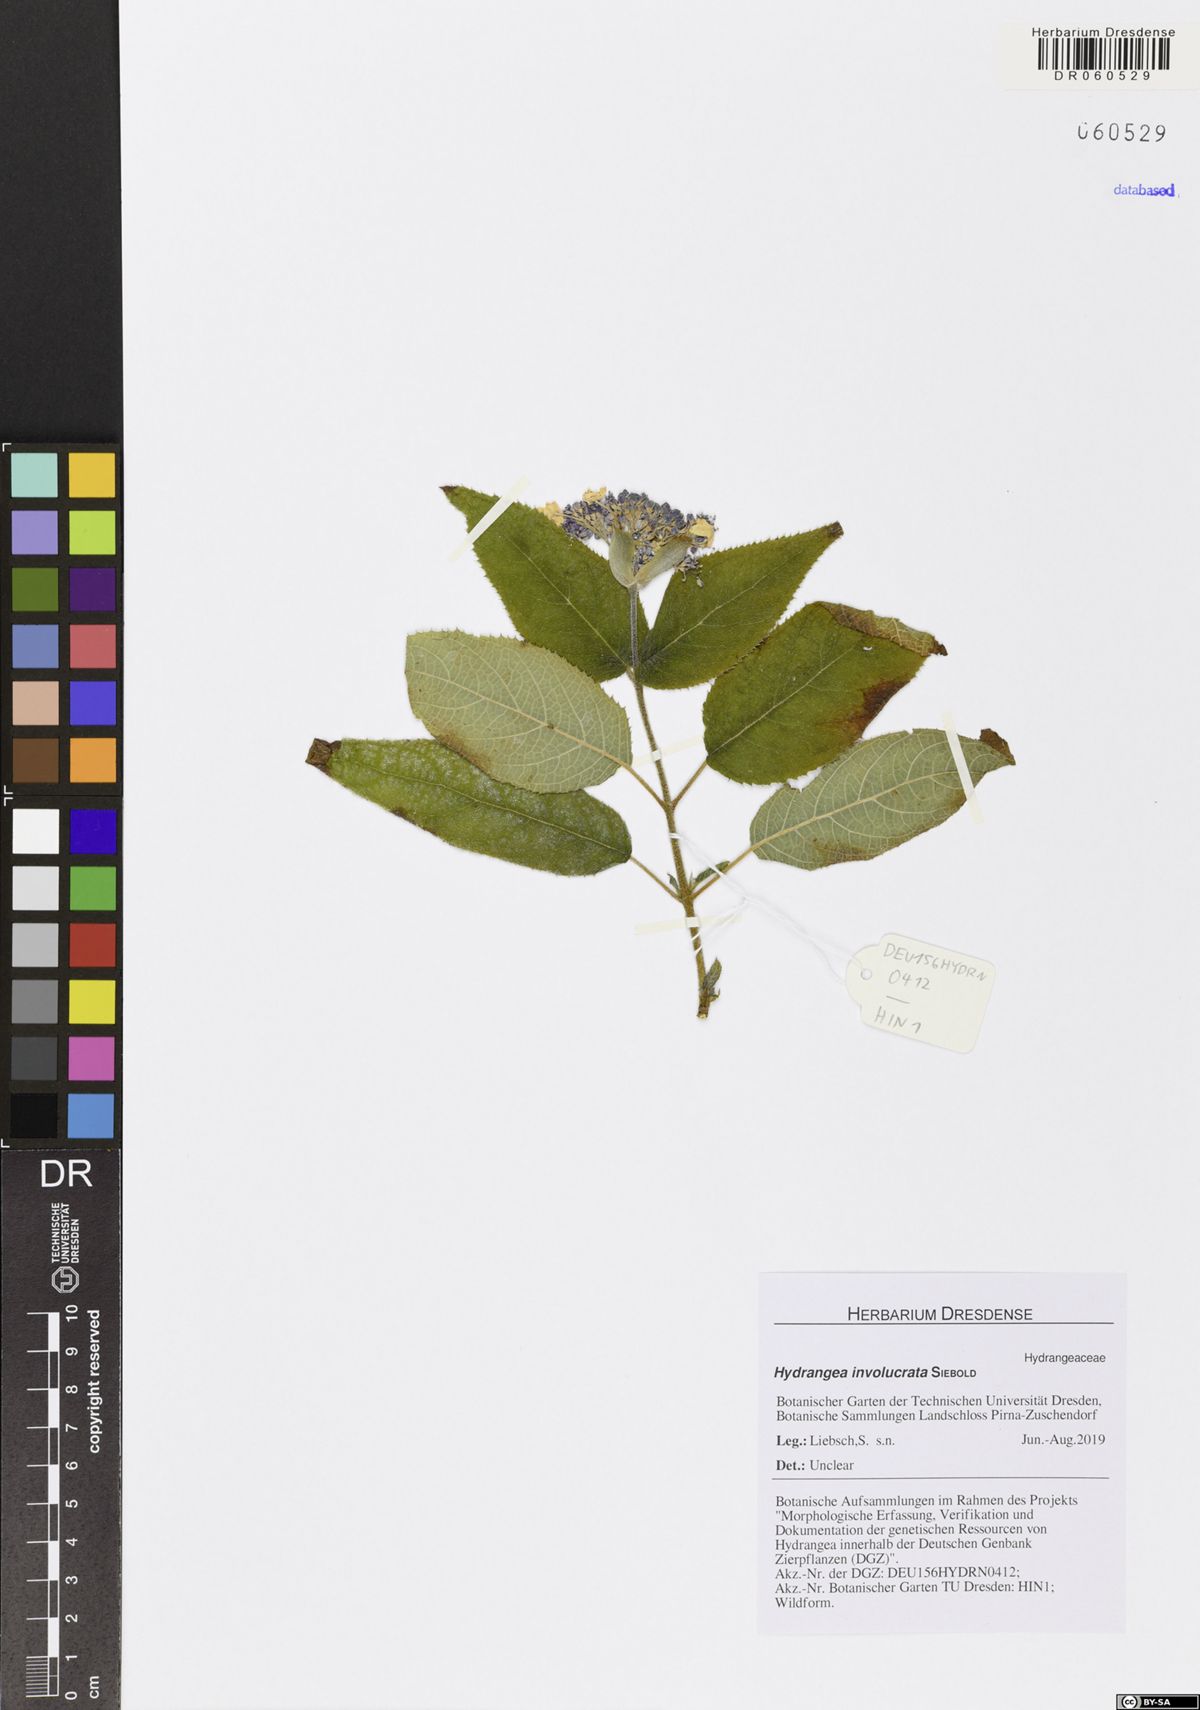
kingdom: Plantae
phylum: Tracheophyta
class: Magnoliopsida
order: Cornales
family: Hydrangeaceae
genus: Hydrangea
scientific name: Hydrangea involucrata
